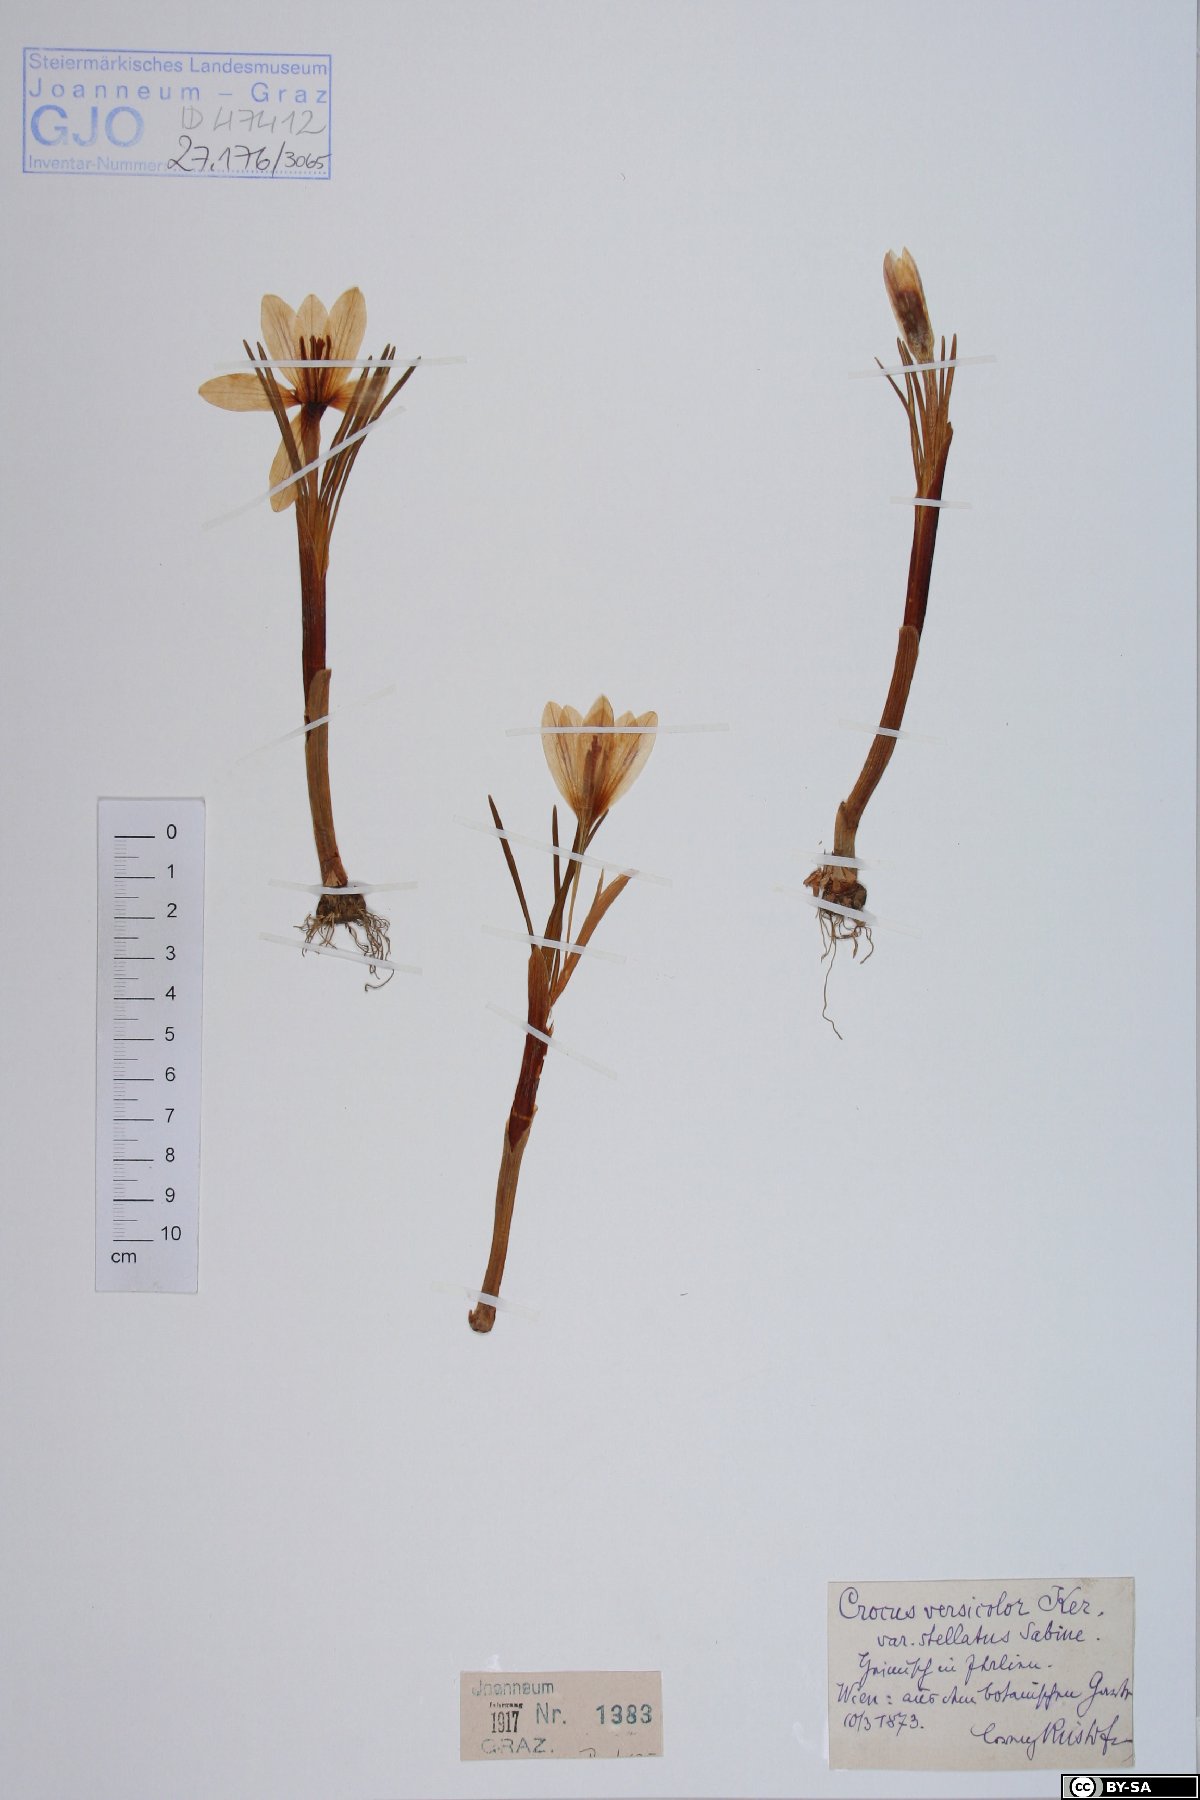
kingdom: Plantae
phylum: Tracheophyta
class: Liliopsida
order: Asparagales
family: Iridaceae
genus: Crocus
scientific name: Crocus versicolor
